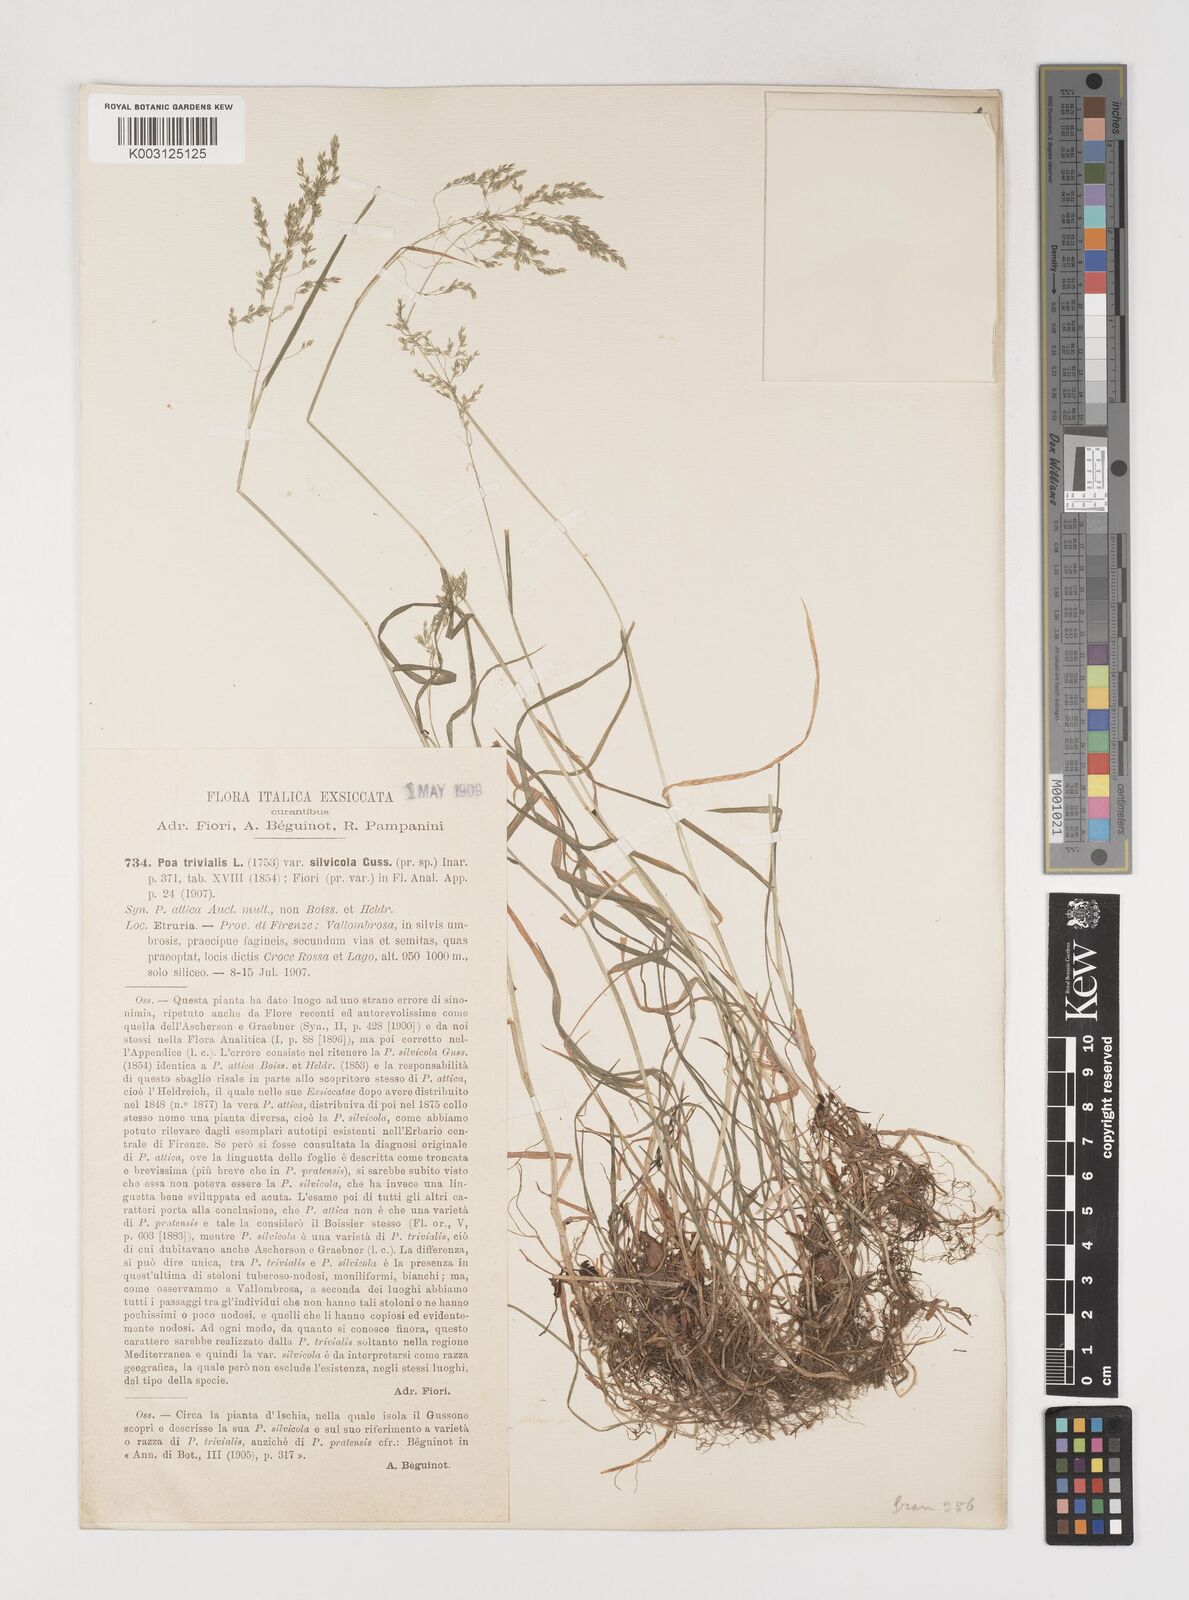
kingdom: Plantae
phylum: Tracheophyta
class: Liliopsida
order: Poales
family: Poaceae
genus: Poa
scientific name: Poa trivialis
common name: Rough bluegrass
